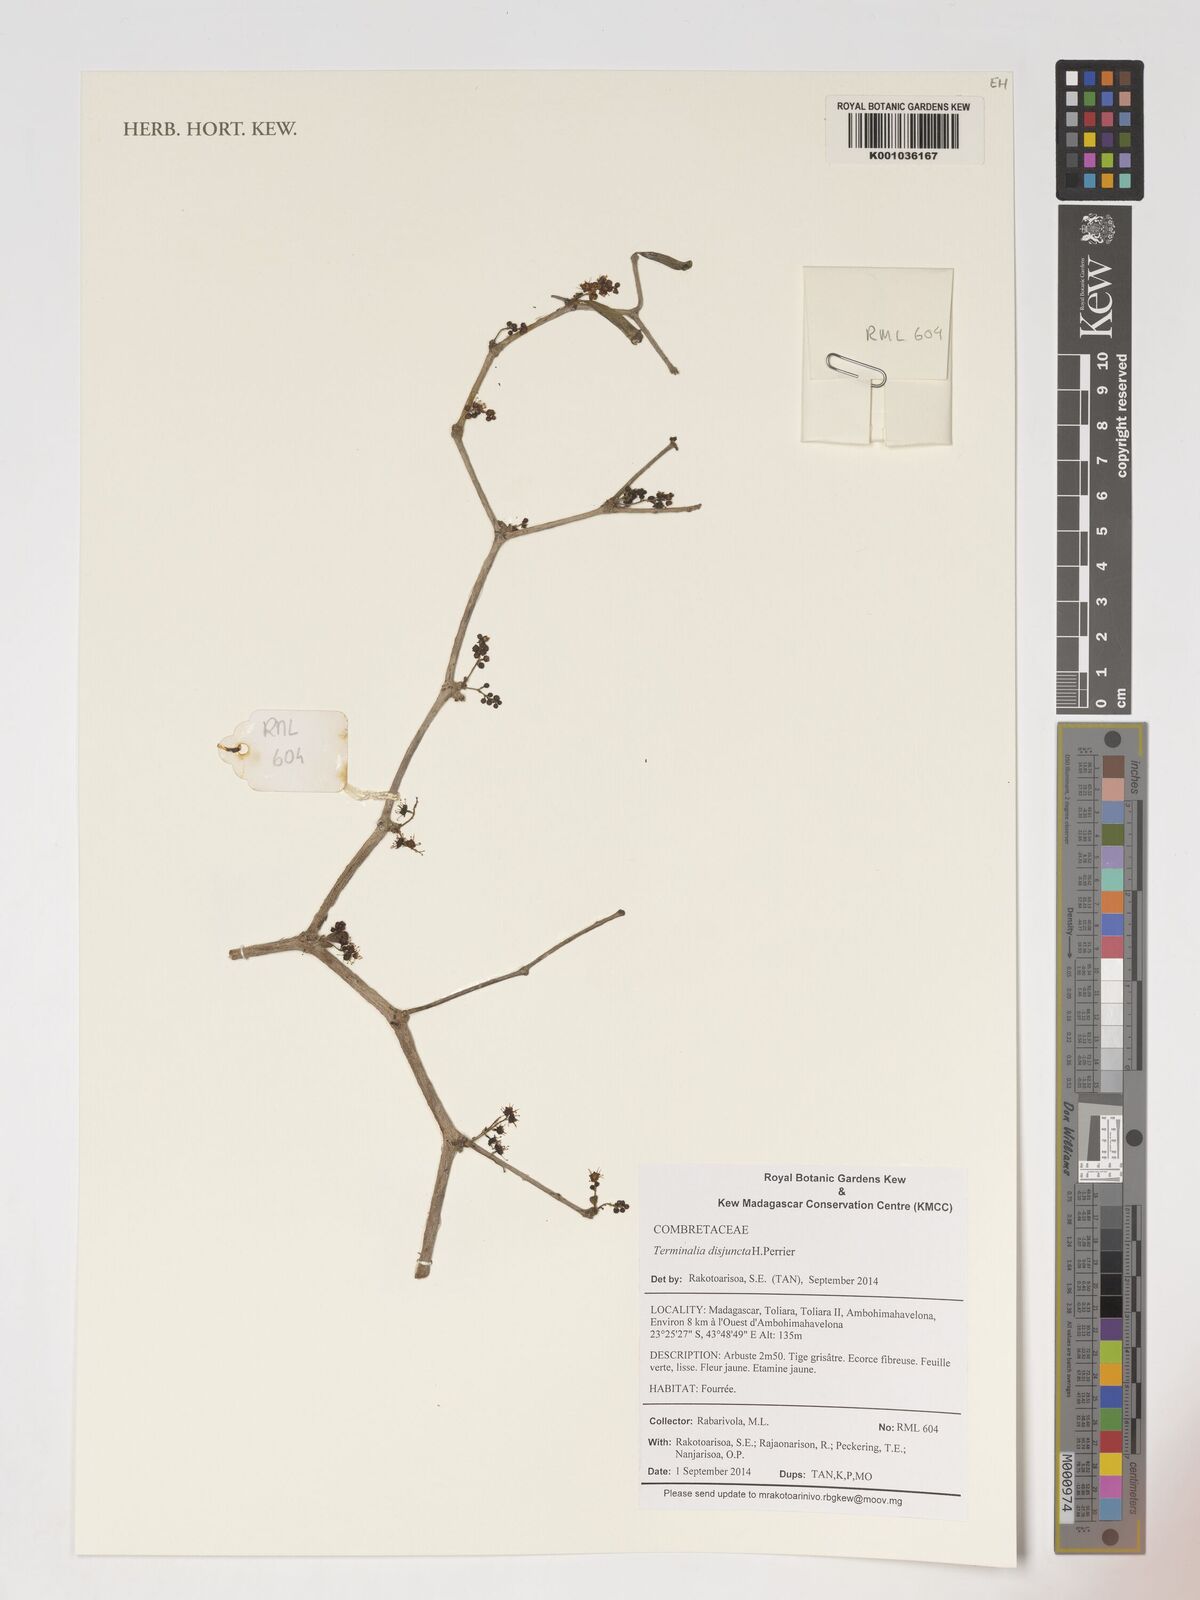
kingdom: Plantae
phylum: Tracheophyta
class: Magnoliopsida
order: Myrtales
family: Combretaceae
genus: Terminalia
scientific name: Terminalia disjuncta
